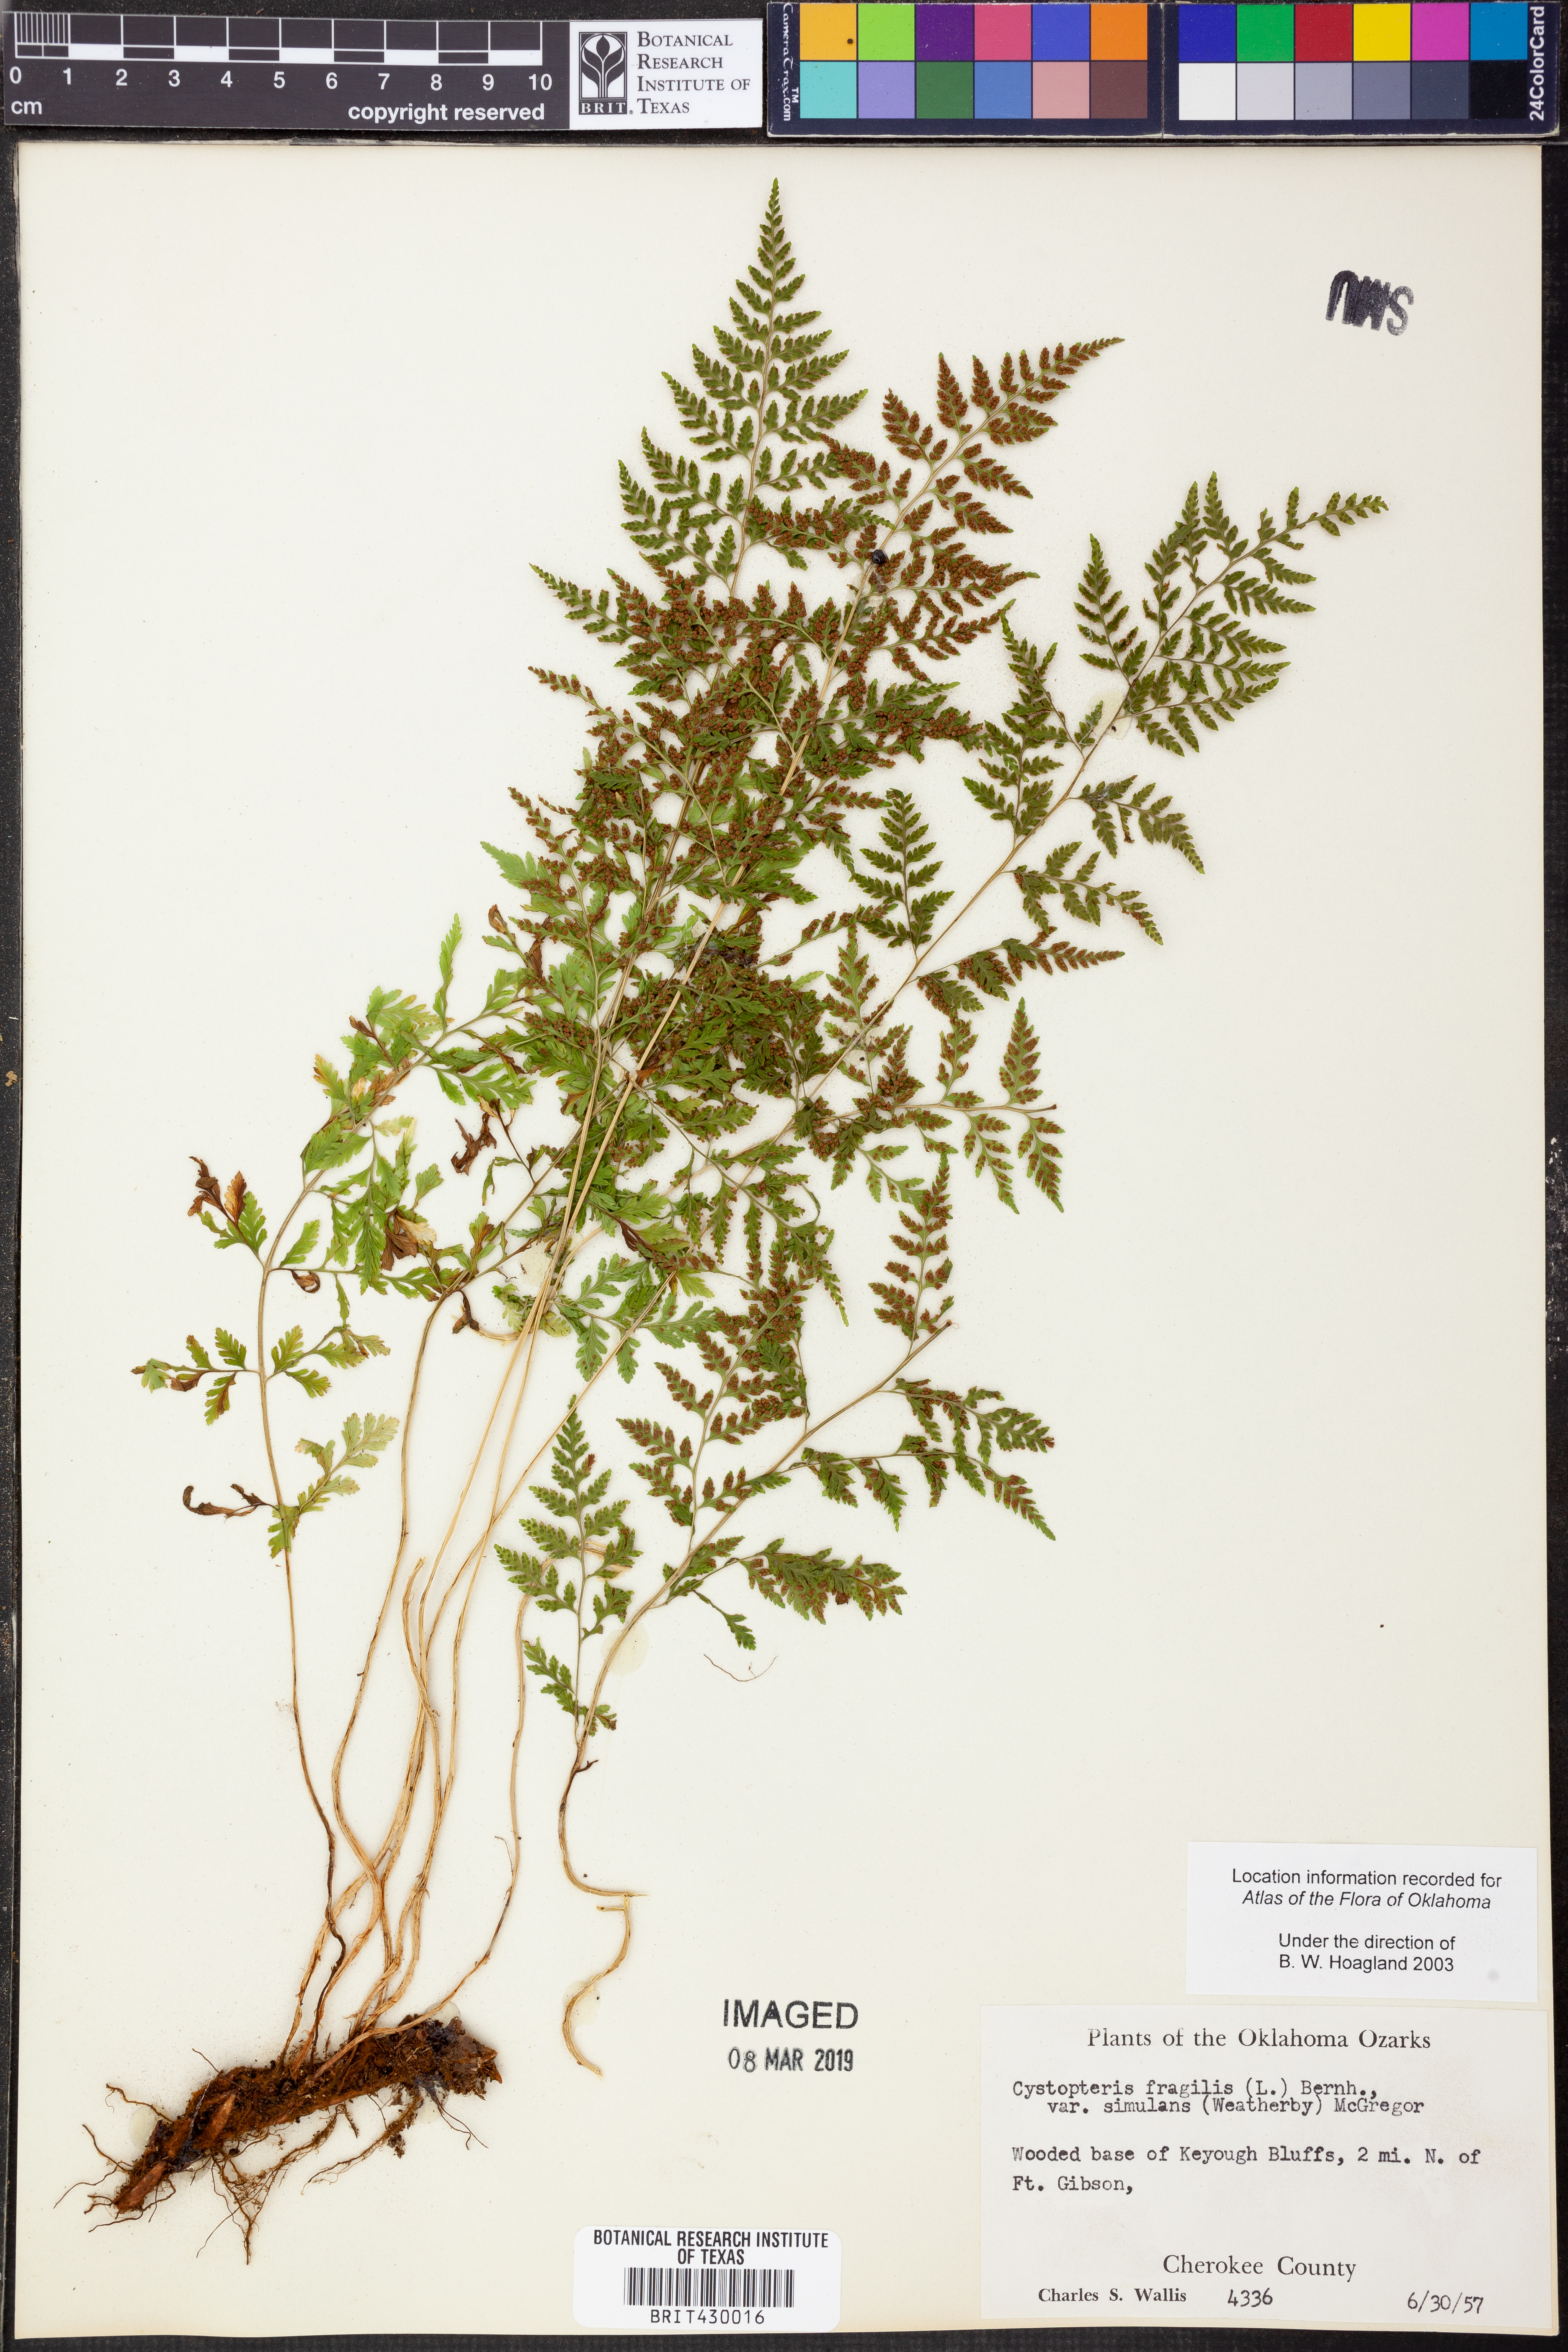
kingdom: Plantae
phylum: Tracheophyta
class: Polypodiopsida
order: Polypodiales
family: Cystopteridaceae
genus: Cystopteris
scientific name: Cystopteris tennesseensis
